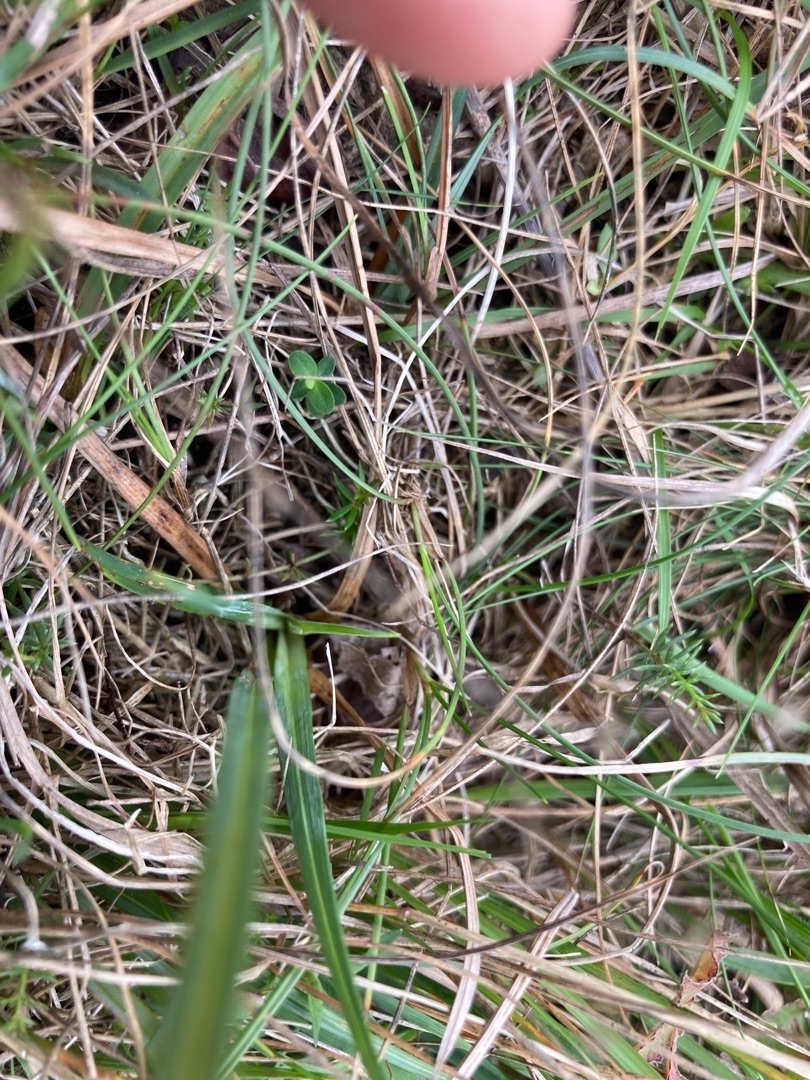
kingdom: Plantae
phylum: Tracheophyta
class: Liliopsida
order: Poales
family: Cyperaceae
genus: Carex
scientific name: Carex flacca
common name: Blågrøn star
